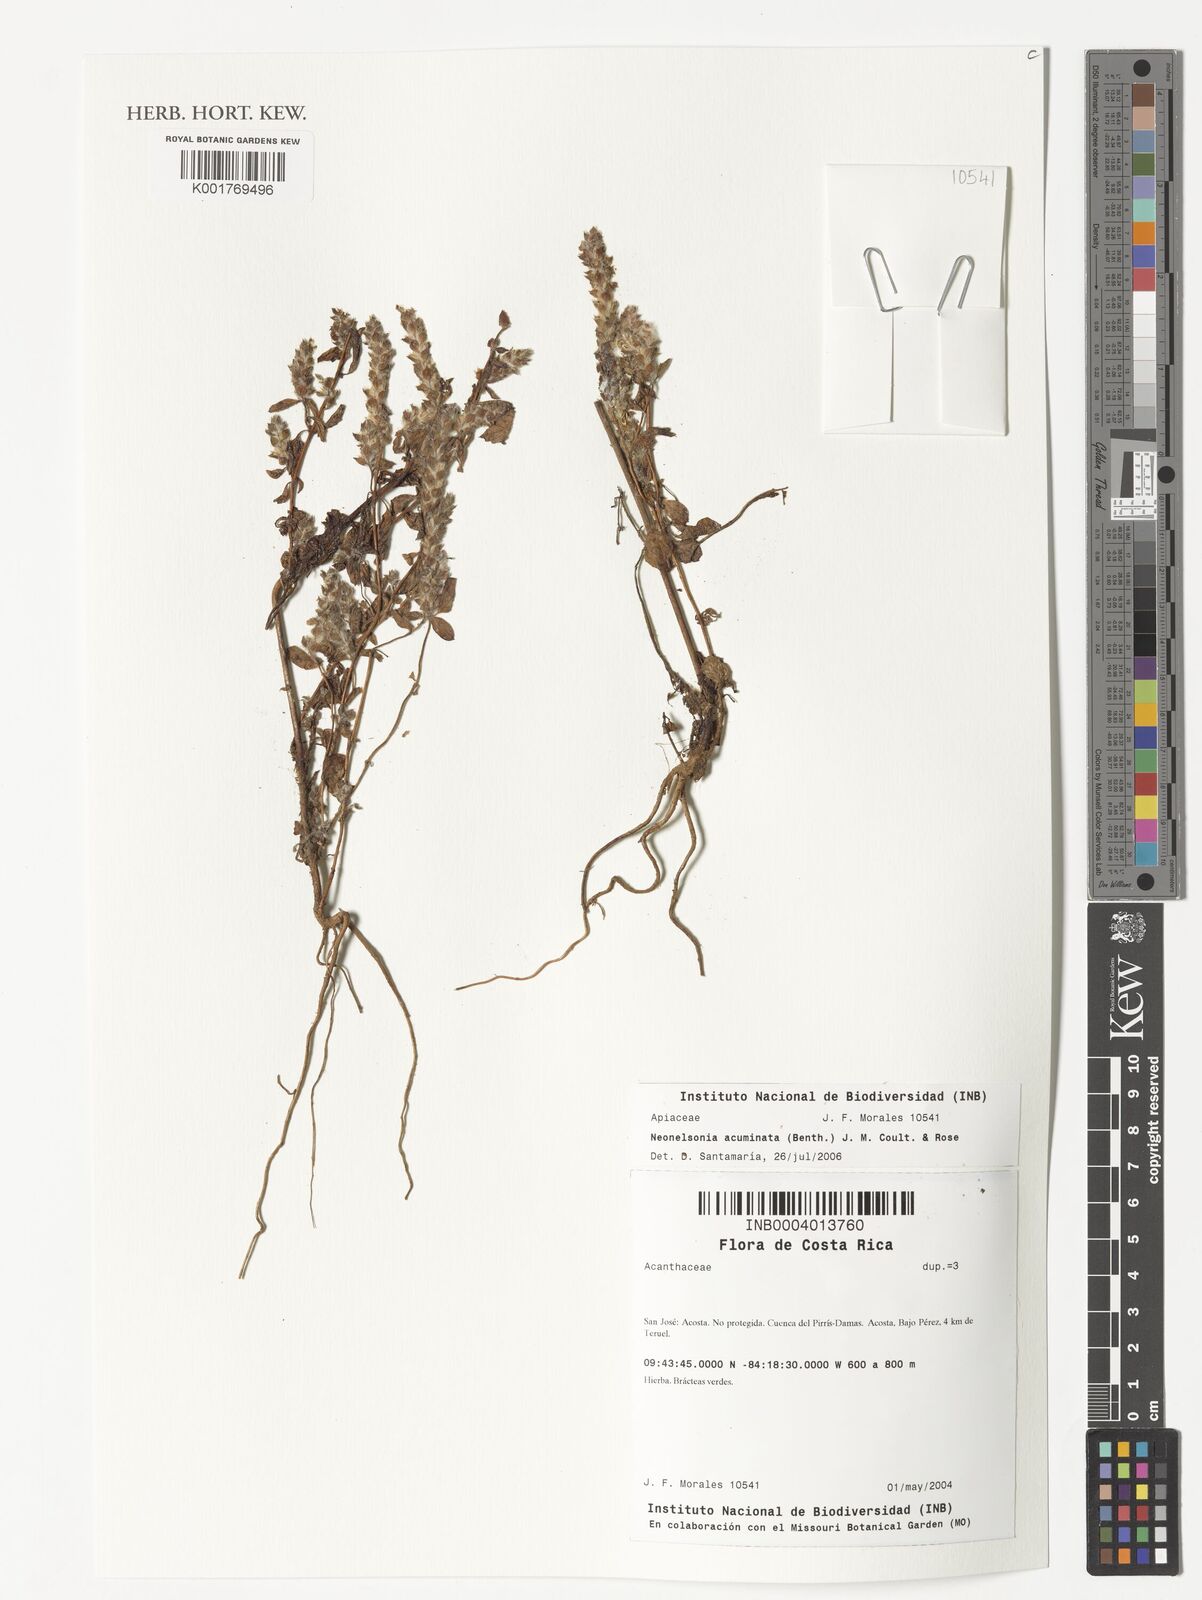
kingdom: Plantae
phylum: Tracheophyta
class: Magnoliopsida
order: Apiales
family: Apiaceae
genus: Neonelsonia
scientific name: Neonelsonia acuminata
